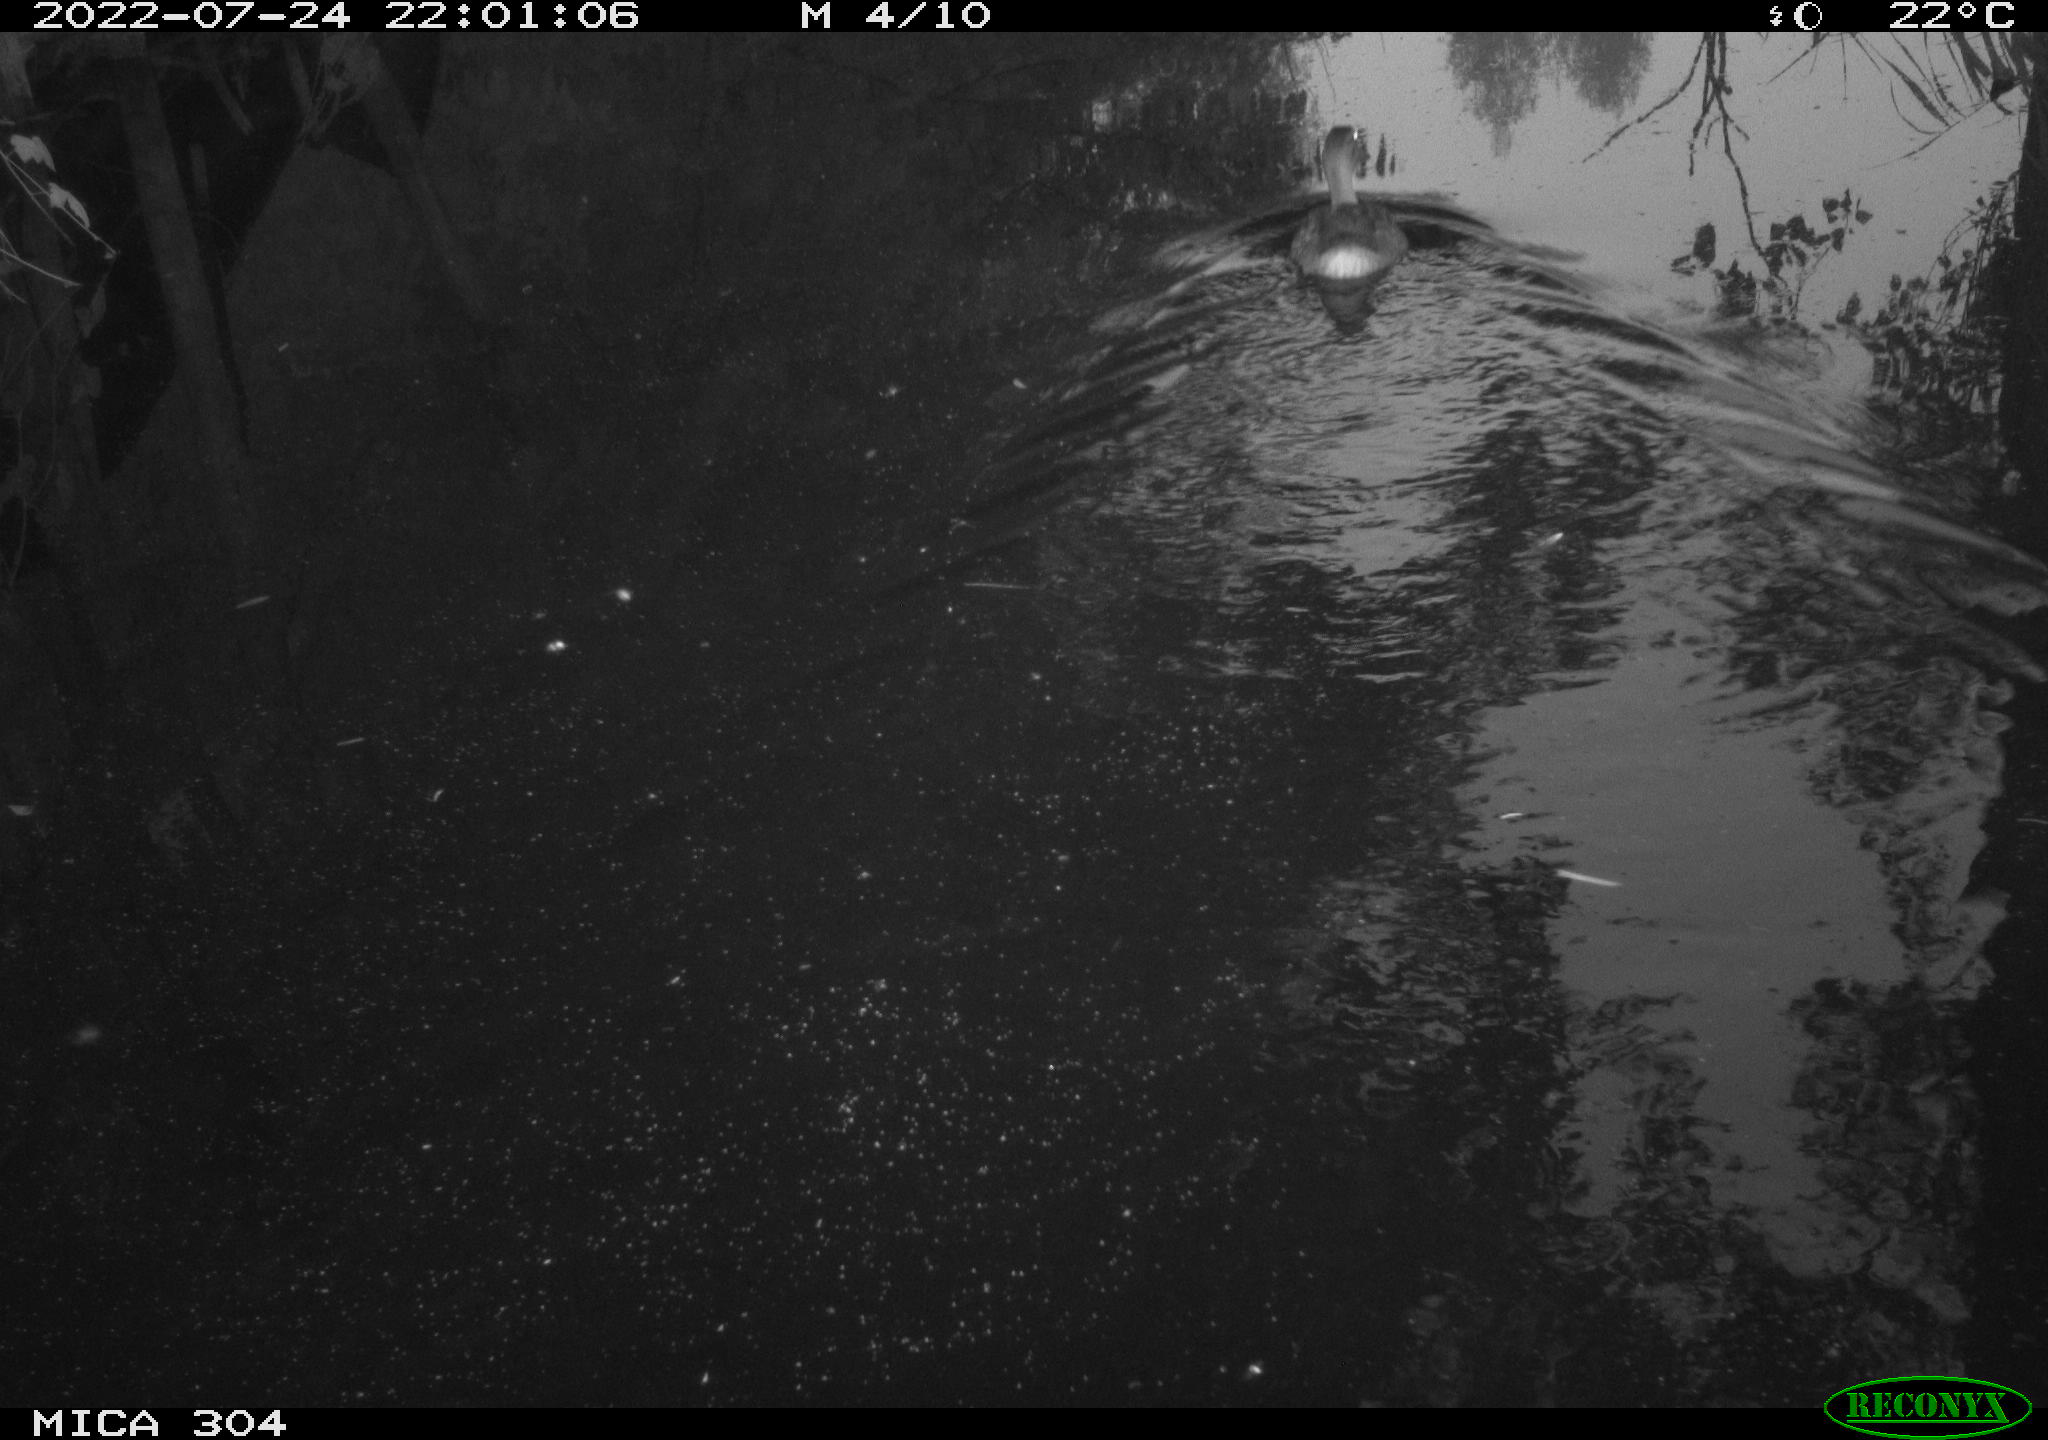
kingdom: Animalia
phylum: Chordata
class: Aves
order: Anseriformes
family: Anatidae
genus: Anas
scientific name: Anas platyrhynchos
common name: Mallard
